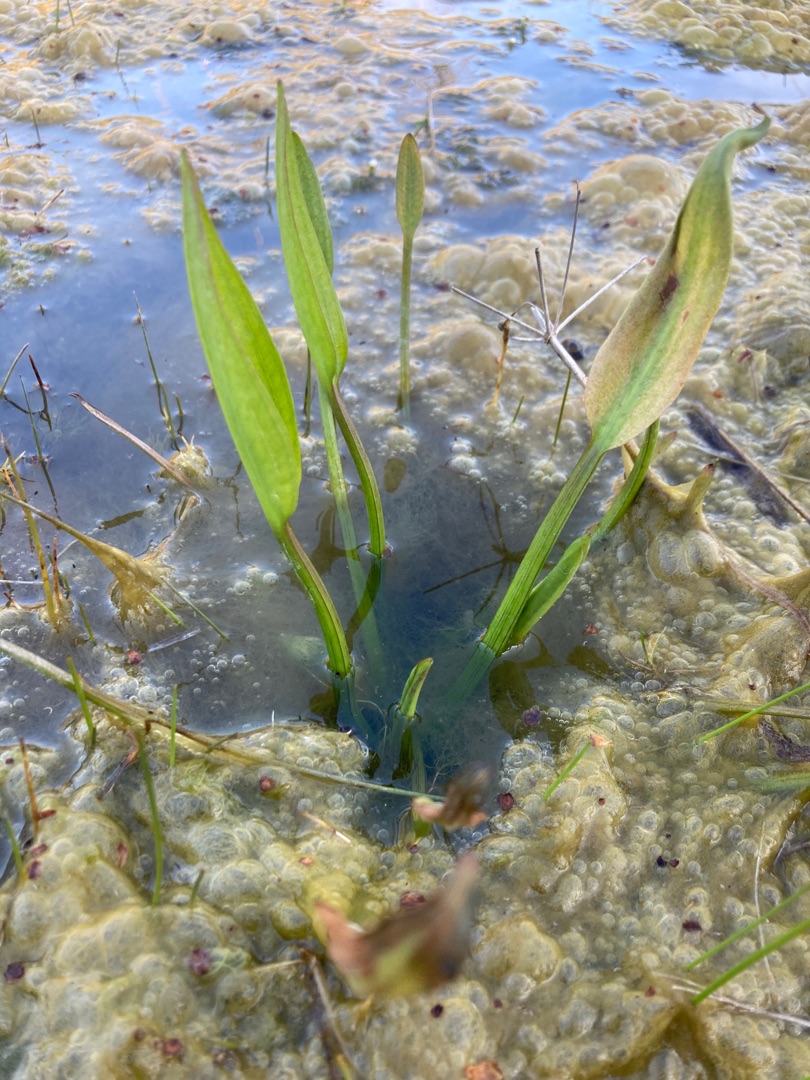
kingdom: Plantae
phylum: Tracheophyta
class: Liliopsida
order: Alismatales
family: Alismataceae
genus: Alisma
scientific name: Alisma plantago-aquatica
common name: Vejbred-skeblad
